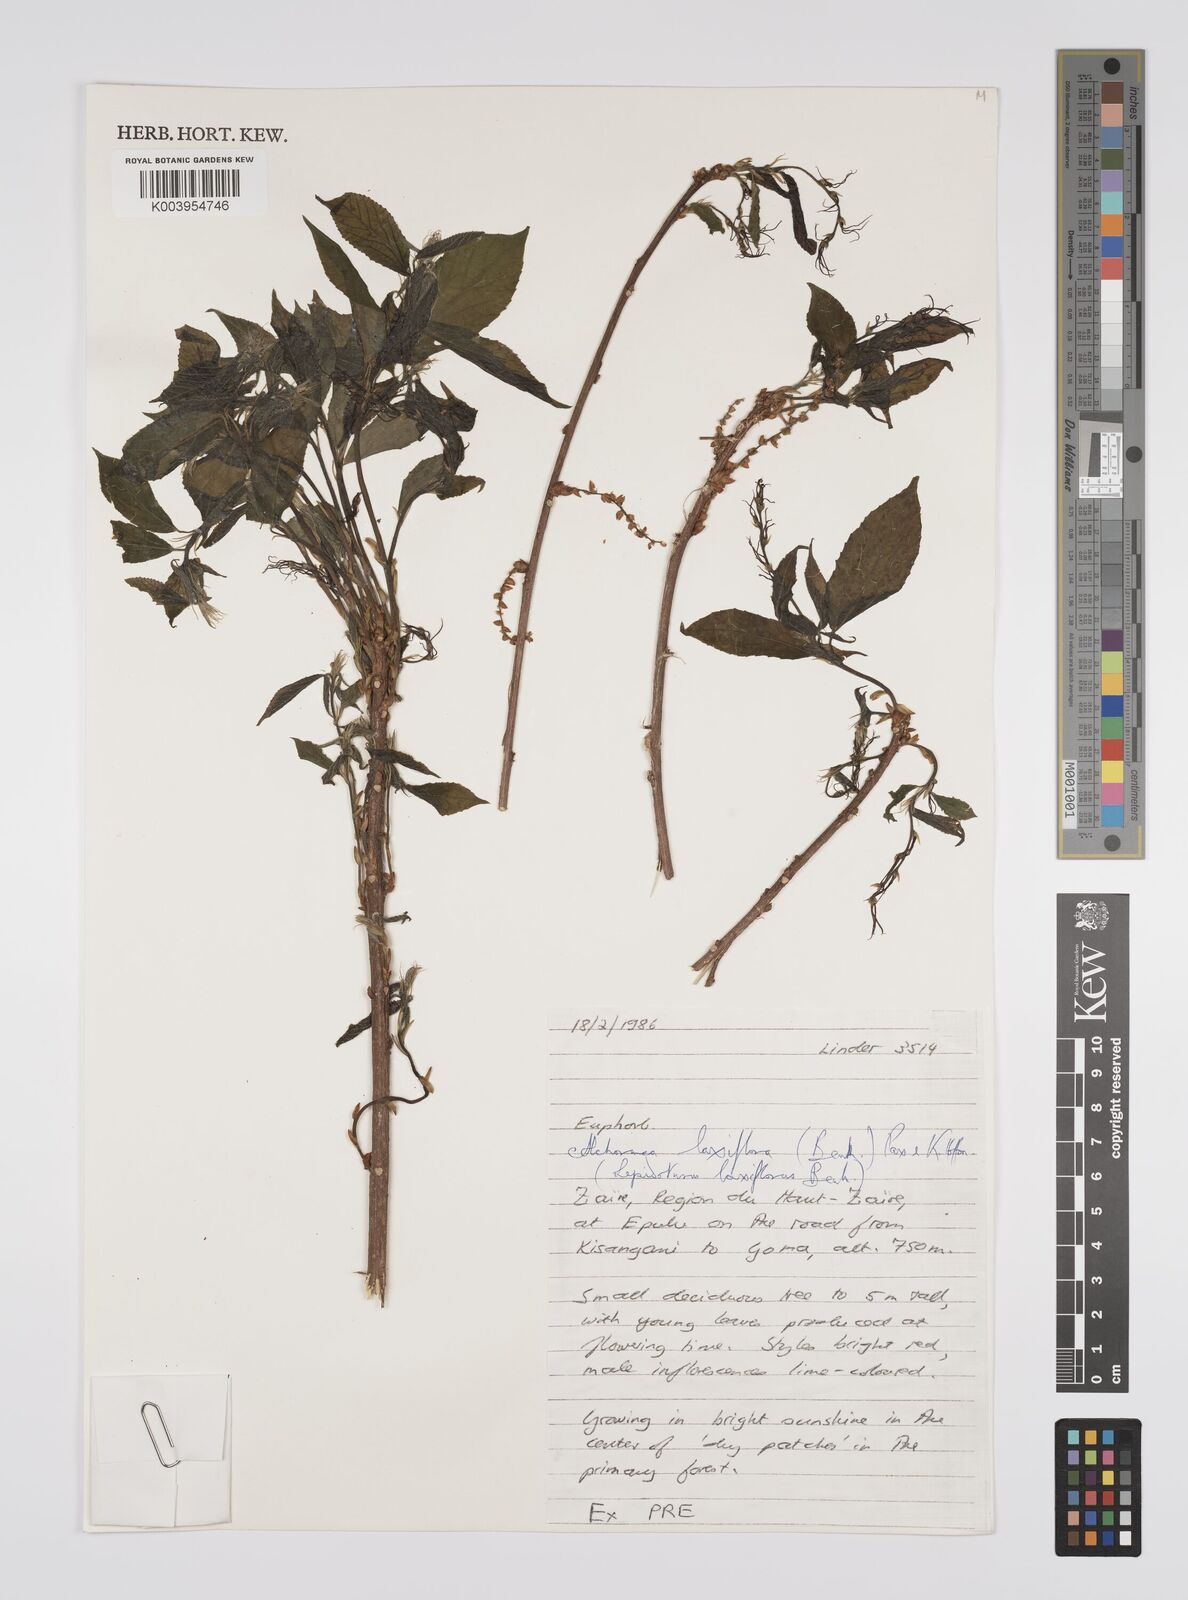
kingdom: Plantae
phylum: Tracheophyta
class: Magnoliopsida
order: Malpighiales
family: Euphorbiaceae
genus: Alchornea
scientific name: Alchornea laxiflora
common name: Lowveld bead-string
